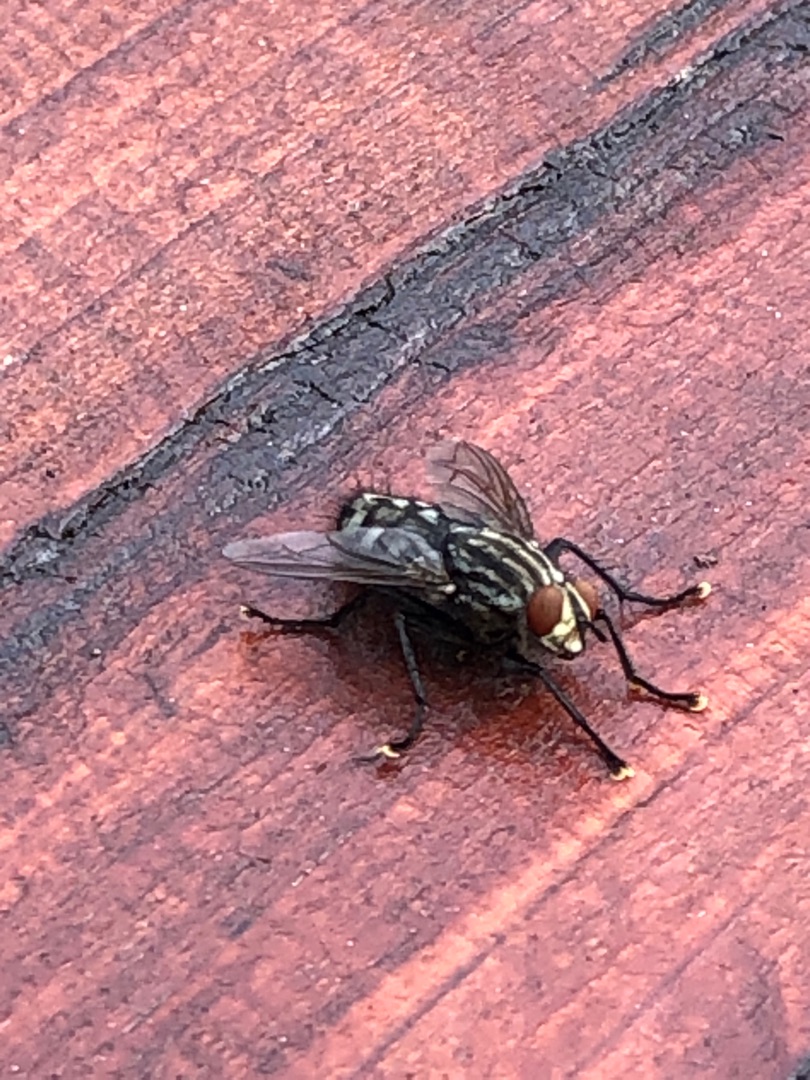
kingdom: Animalia
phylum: Arthropoda
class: Insecta
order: Diptera
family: Sarcophagidae
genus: Sarcophaga
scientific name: Sarcophaga
